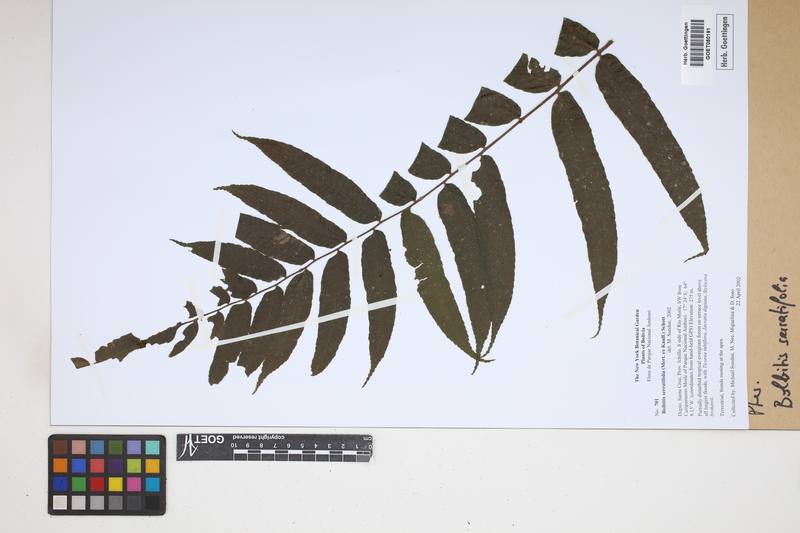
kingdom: Plantae
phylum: Tracheophyta
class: Polypodiopsida
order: Polypodiales
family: Dryopteridaceae
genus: Bolbitis
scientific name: Bolbitis serratifolia
